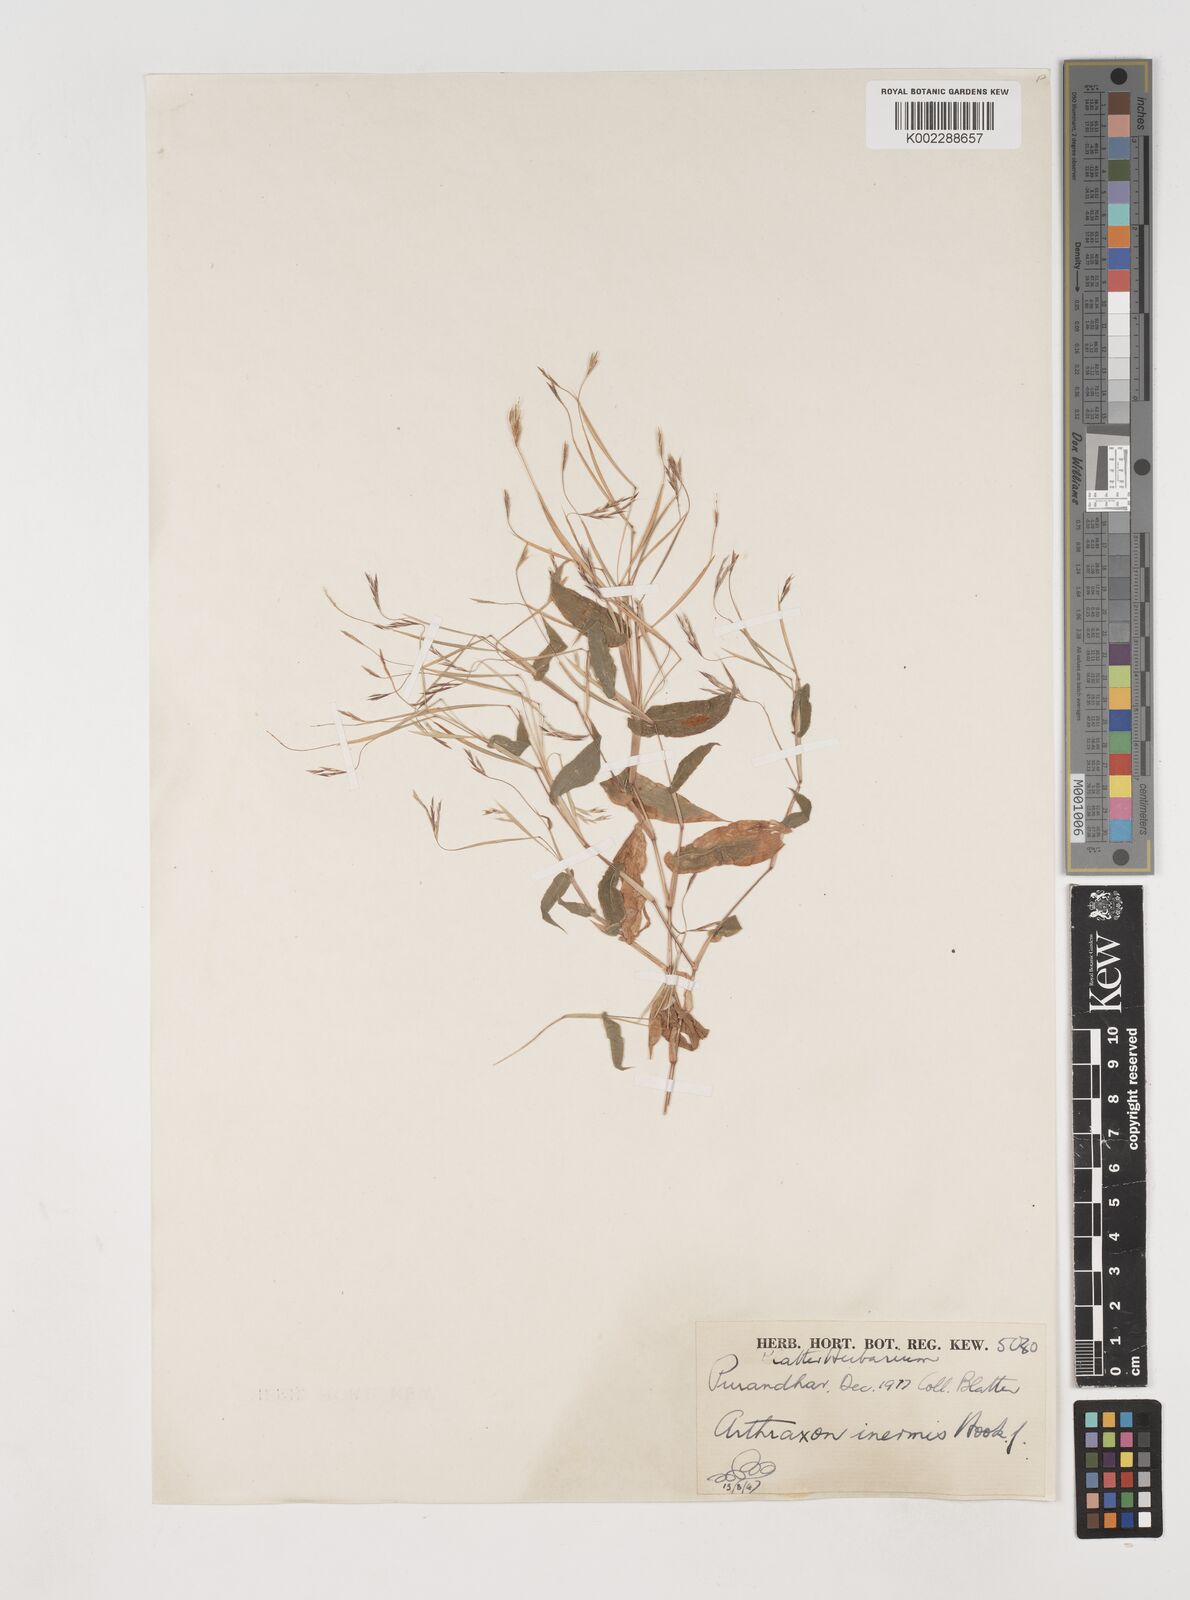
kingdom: Plantae
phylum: Tracheophyta
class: Liliopsida
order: Poales
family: Poaceae
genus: Arthraxon
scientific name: Arthraxon inermis
